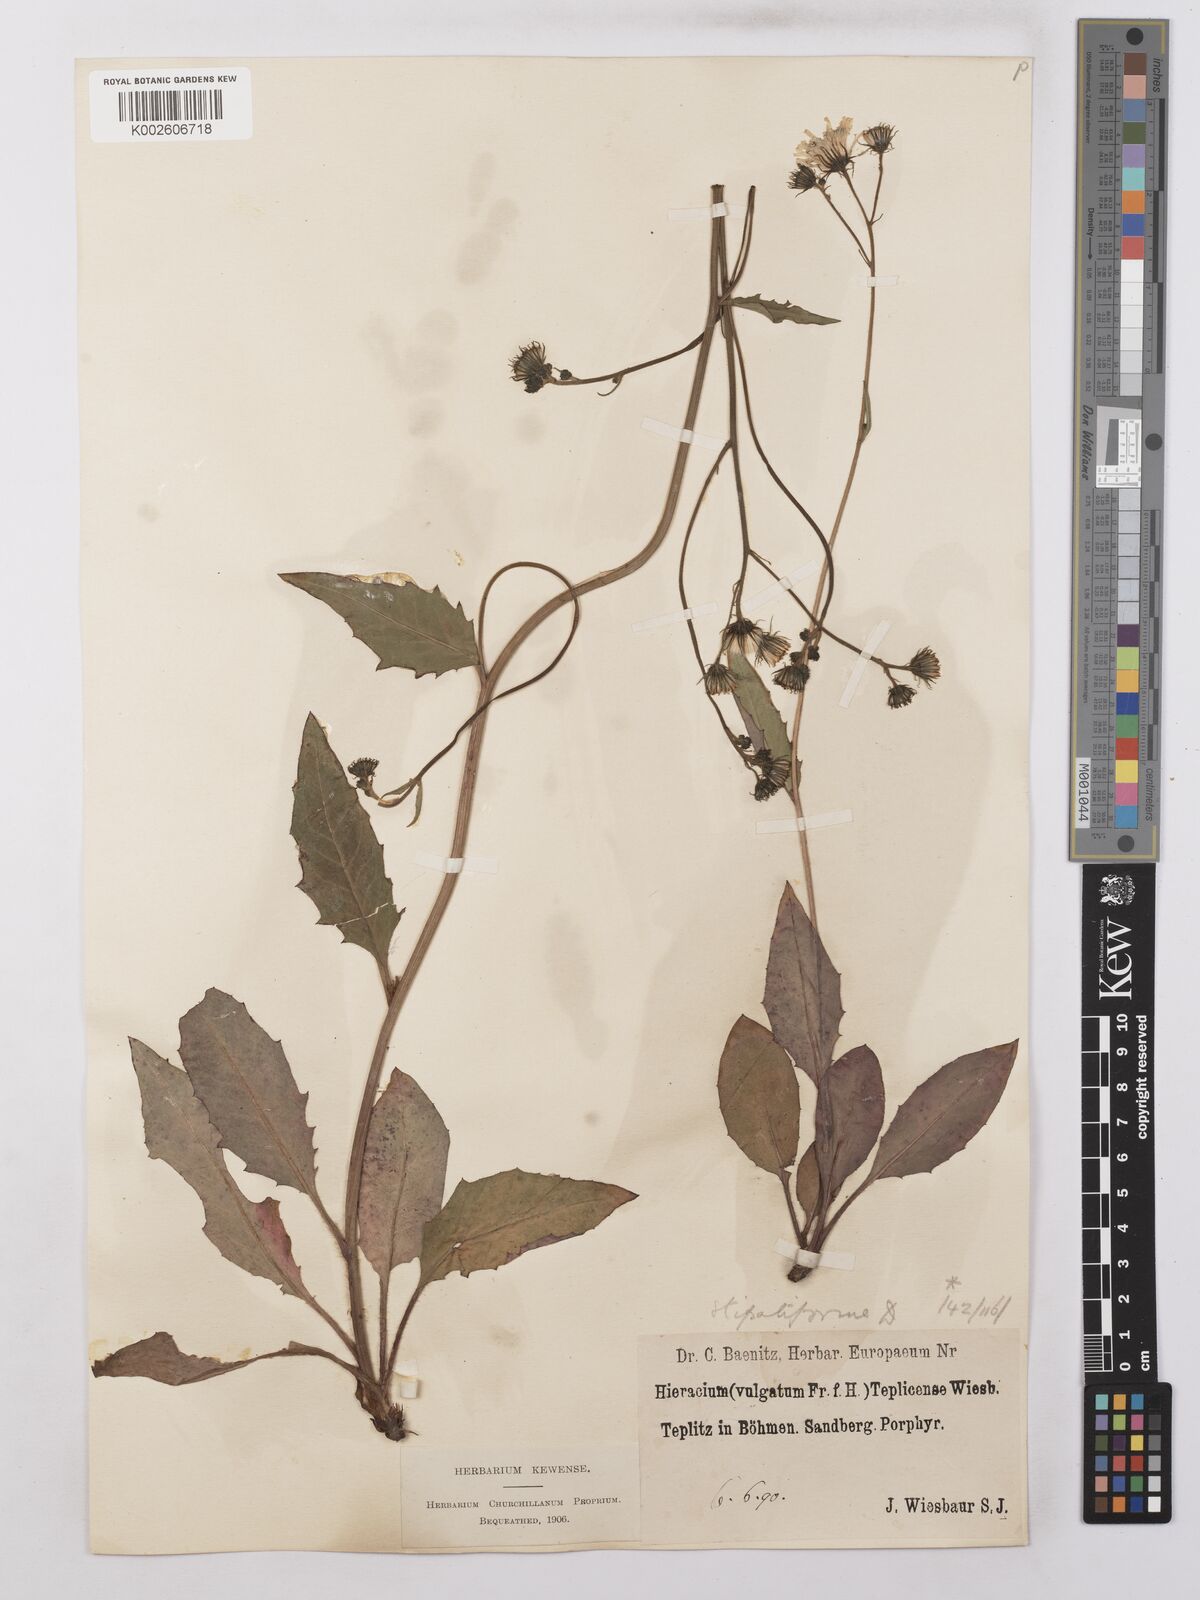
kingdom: Plantae
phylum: Tracheophyta
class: Magnoliopsida
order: Asterales
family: Asteraceae
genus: Hieracium
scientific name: Hieracium lachenalii
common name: Common hawkweed
